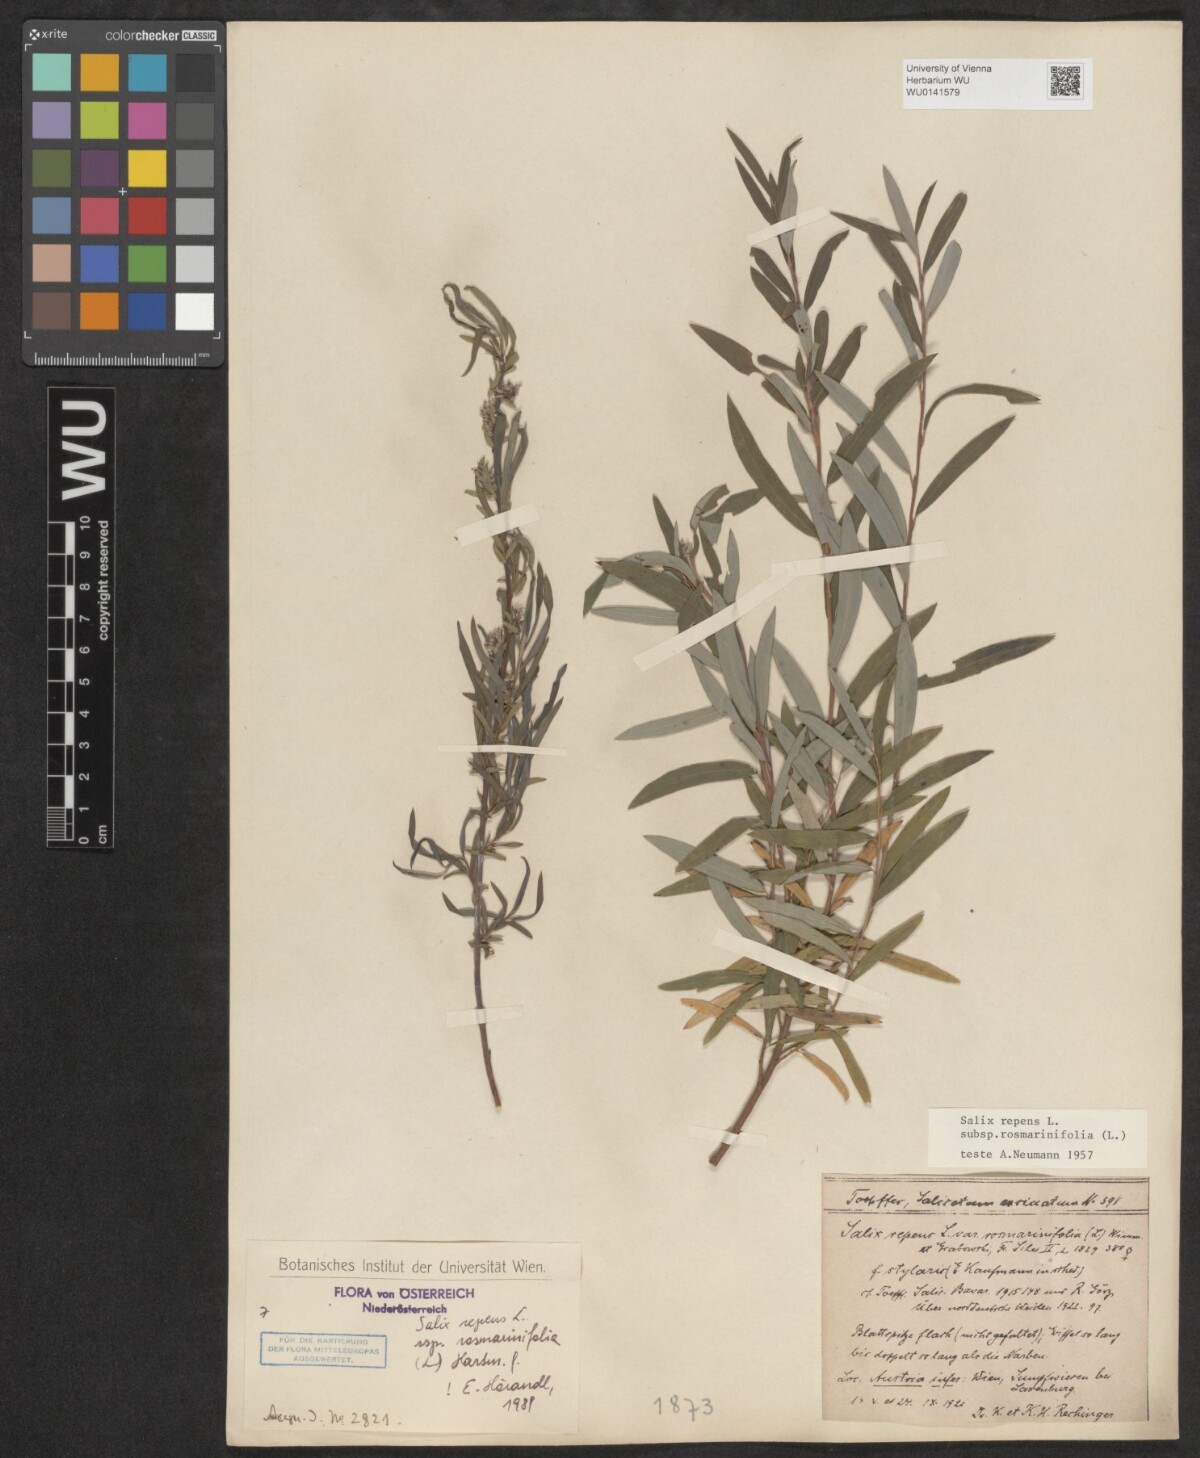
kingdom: Plantae
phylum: Tracheophyta
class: Magnoliopsida
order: Malpighiales
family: Salicaceae
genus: Salix
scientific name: Salix repens
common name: Creeping willow
